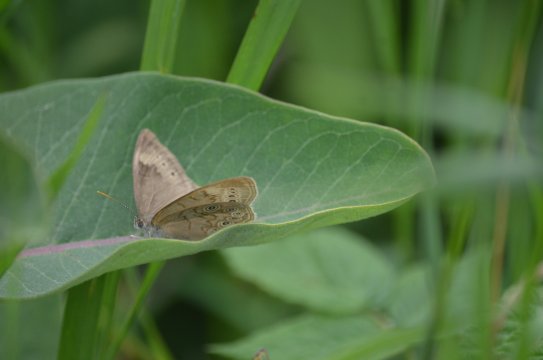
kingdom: Animalia
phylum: Arthropoda
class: Insecta
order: Lepidoptera
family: Nymphalidae
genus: Lethe
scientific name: Lethe eurydice
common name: Eyed Brown
